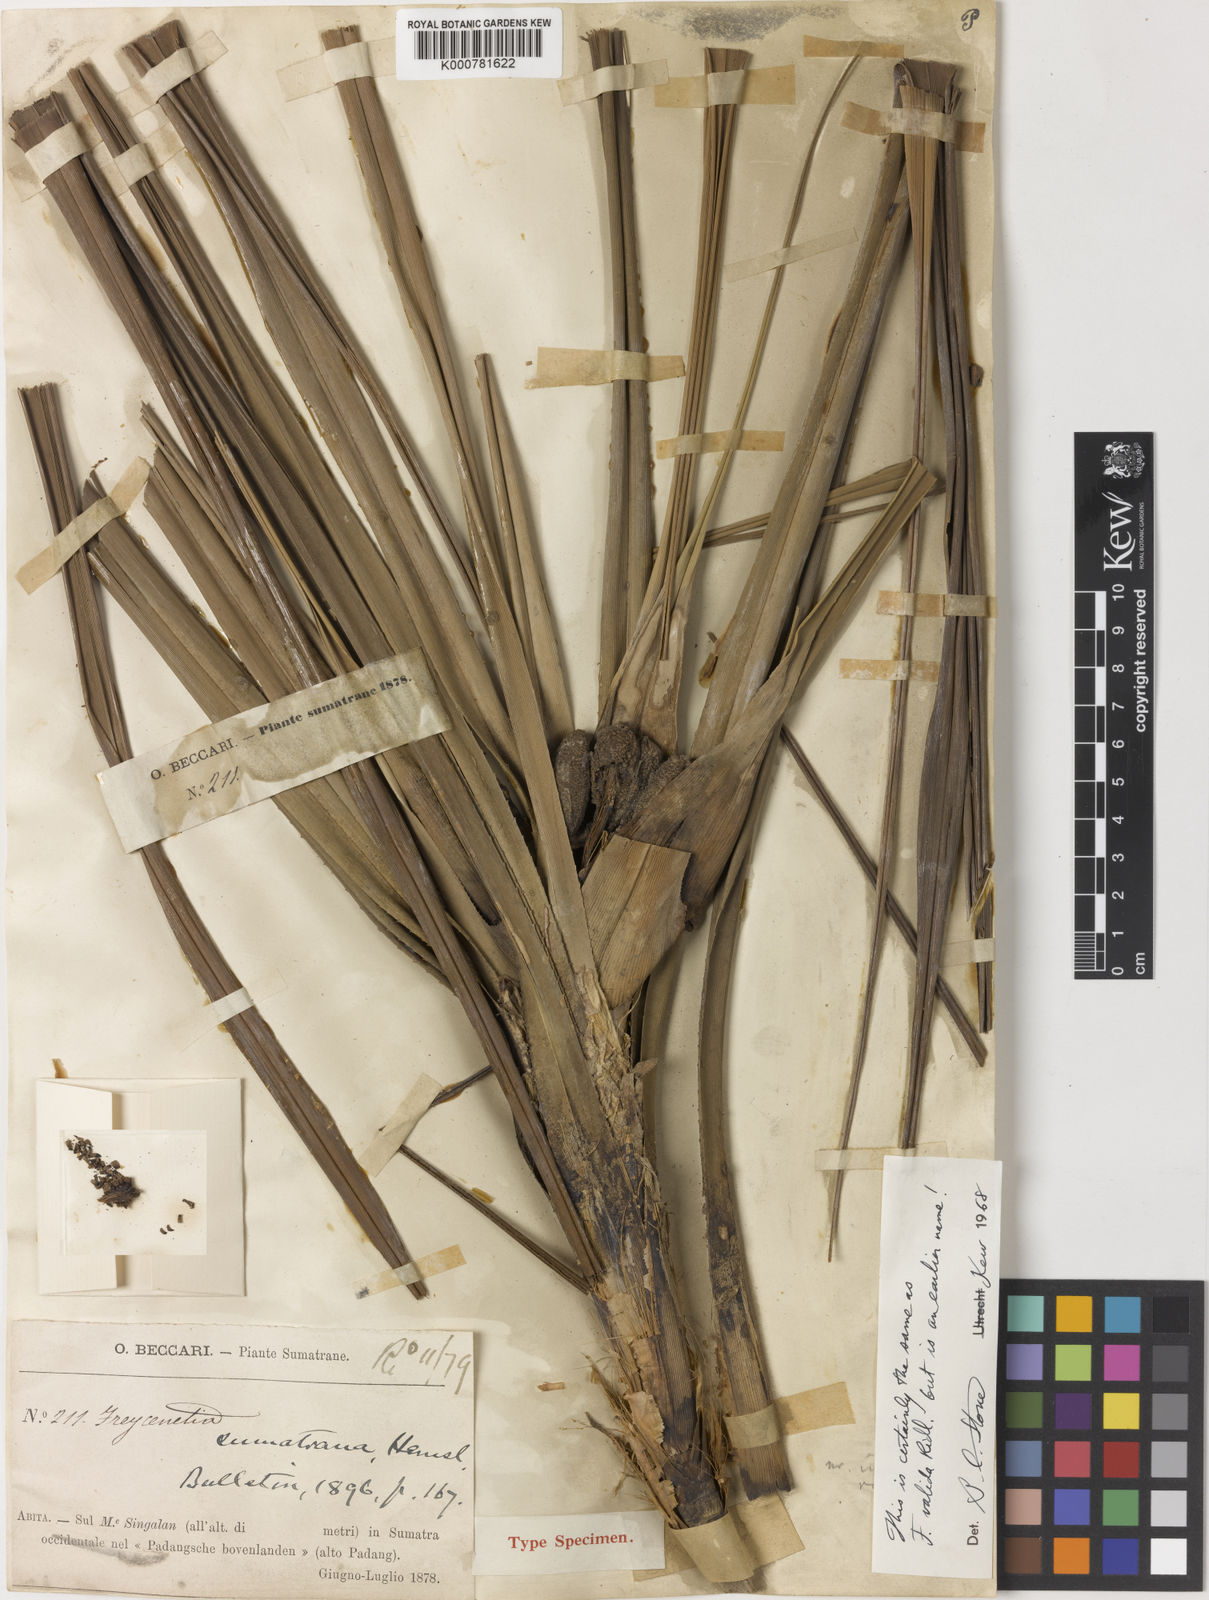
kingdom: Plantae
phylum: Tracheophyta
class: Liliopsida
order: Pandanales
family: Pandanaceae
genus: Freycinetia
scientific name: Freycinetia sumatrana
